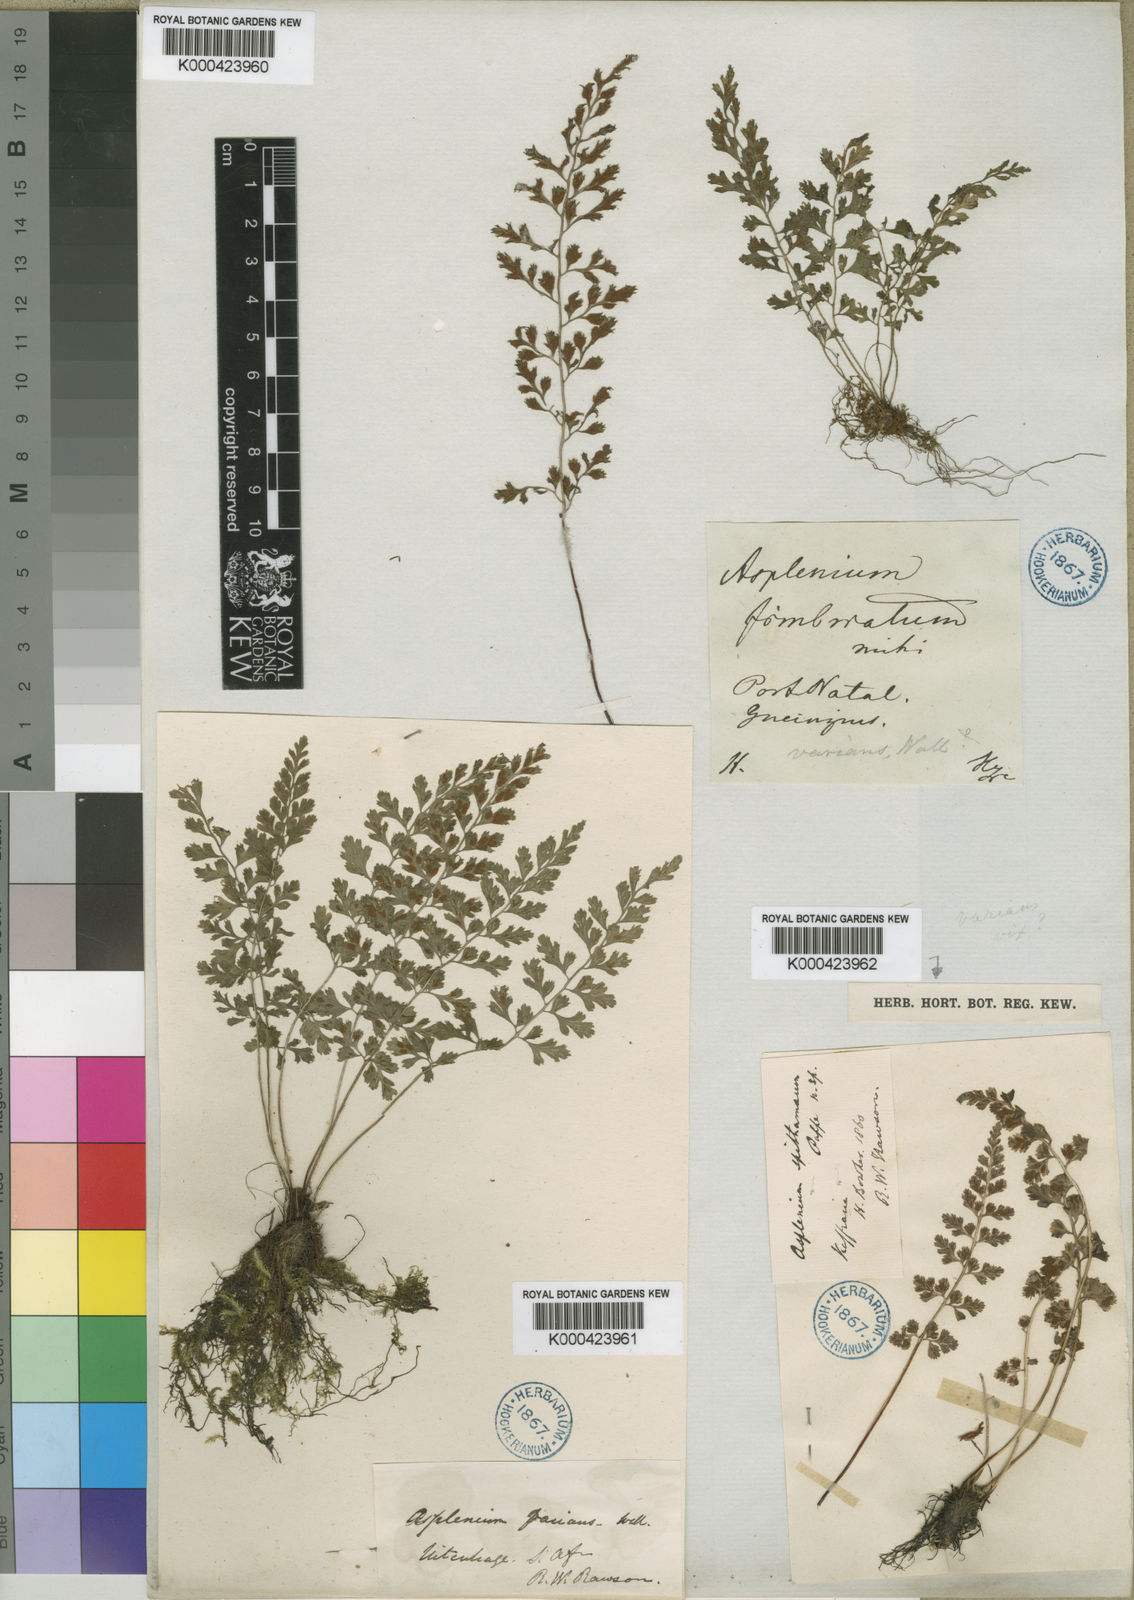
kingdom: Plantae
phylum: Tracheophyta
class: Polypodiopsida
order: Polypodiales
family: Aspleniaceae
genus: Asplenium
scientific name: Asplenium laciniatum
